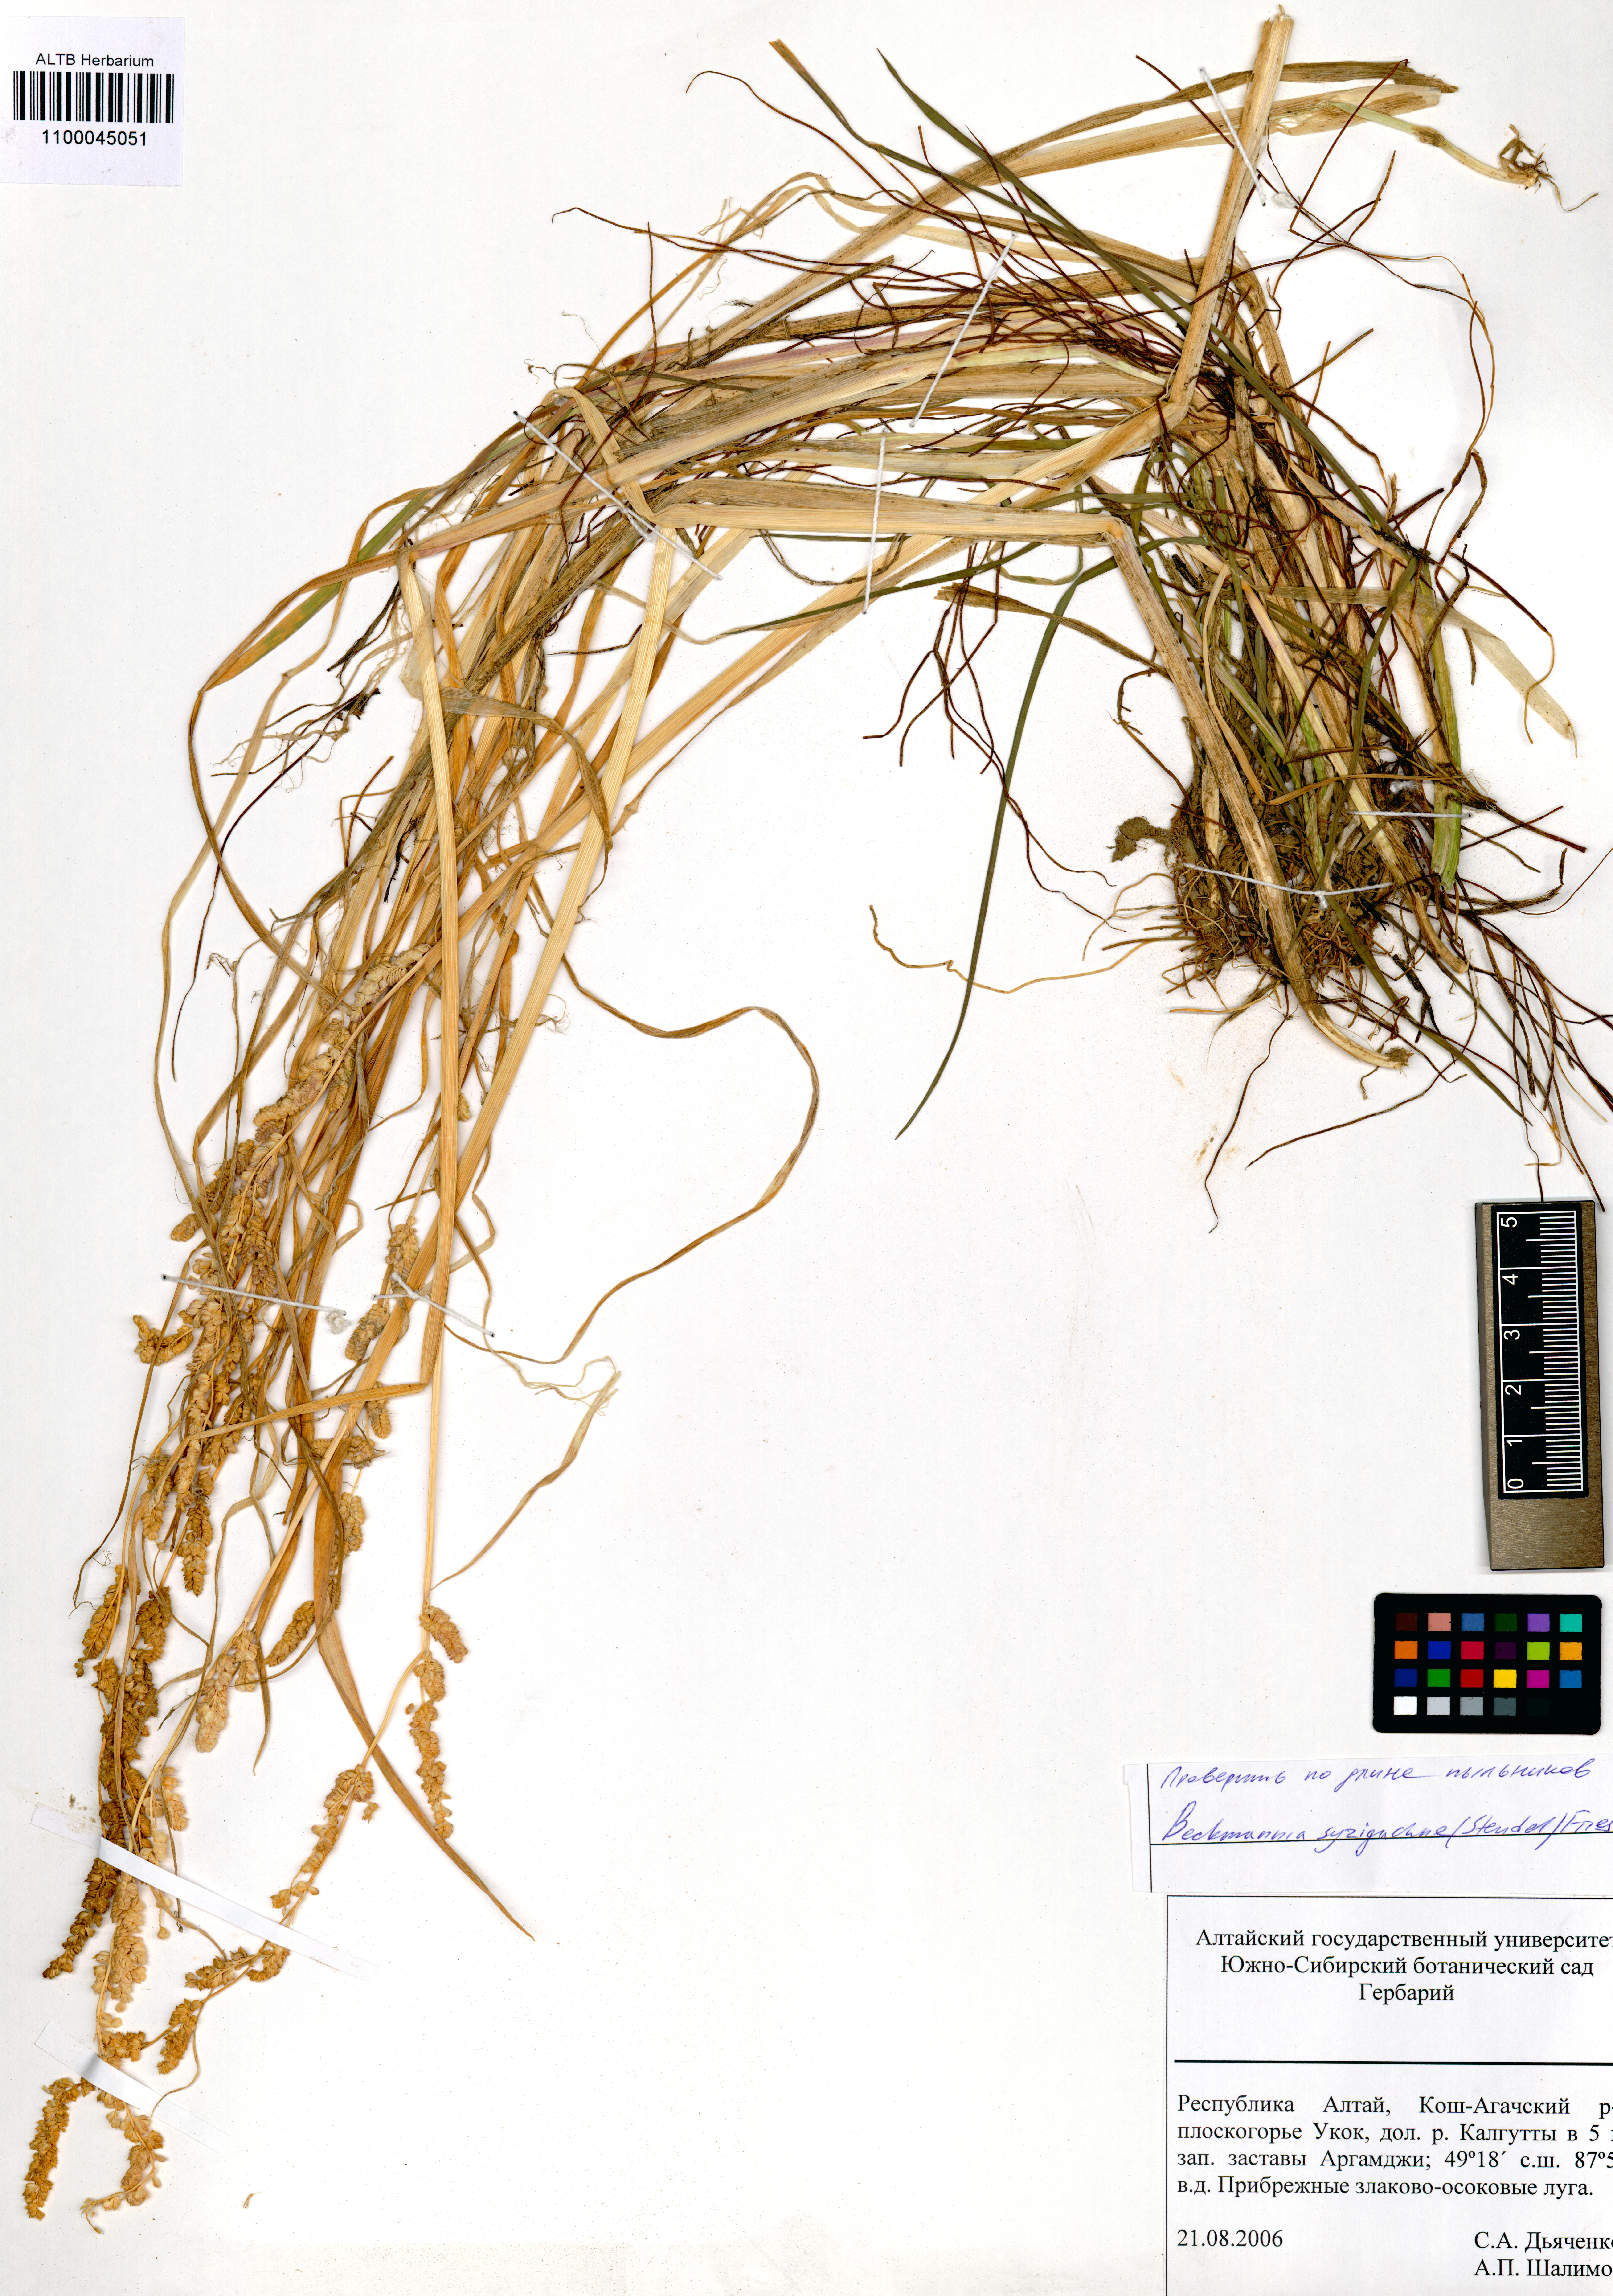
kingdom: Plantae
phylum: Tracheophyta
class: Liliopsida
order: Poales
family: Poaceae
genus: Beckmannia
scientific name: Beckmannia syzigachne
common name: American slough-grass
